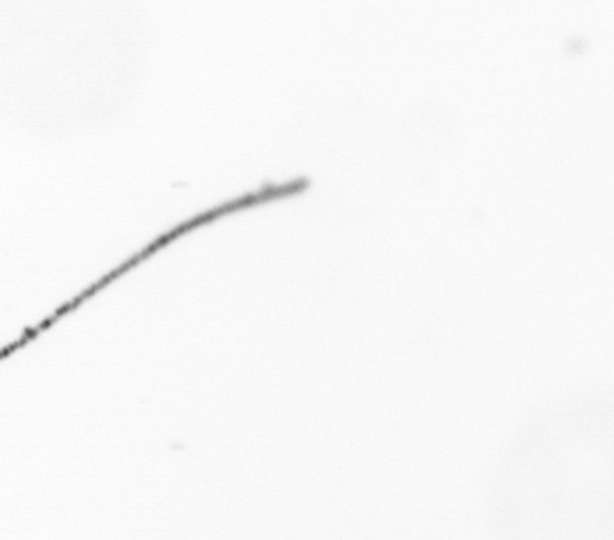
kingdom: Chromista
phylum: Ochrophyta
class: Bacillariophyceae
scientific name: Bacillariophyceae
